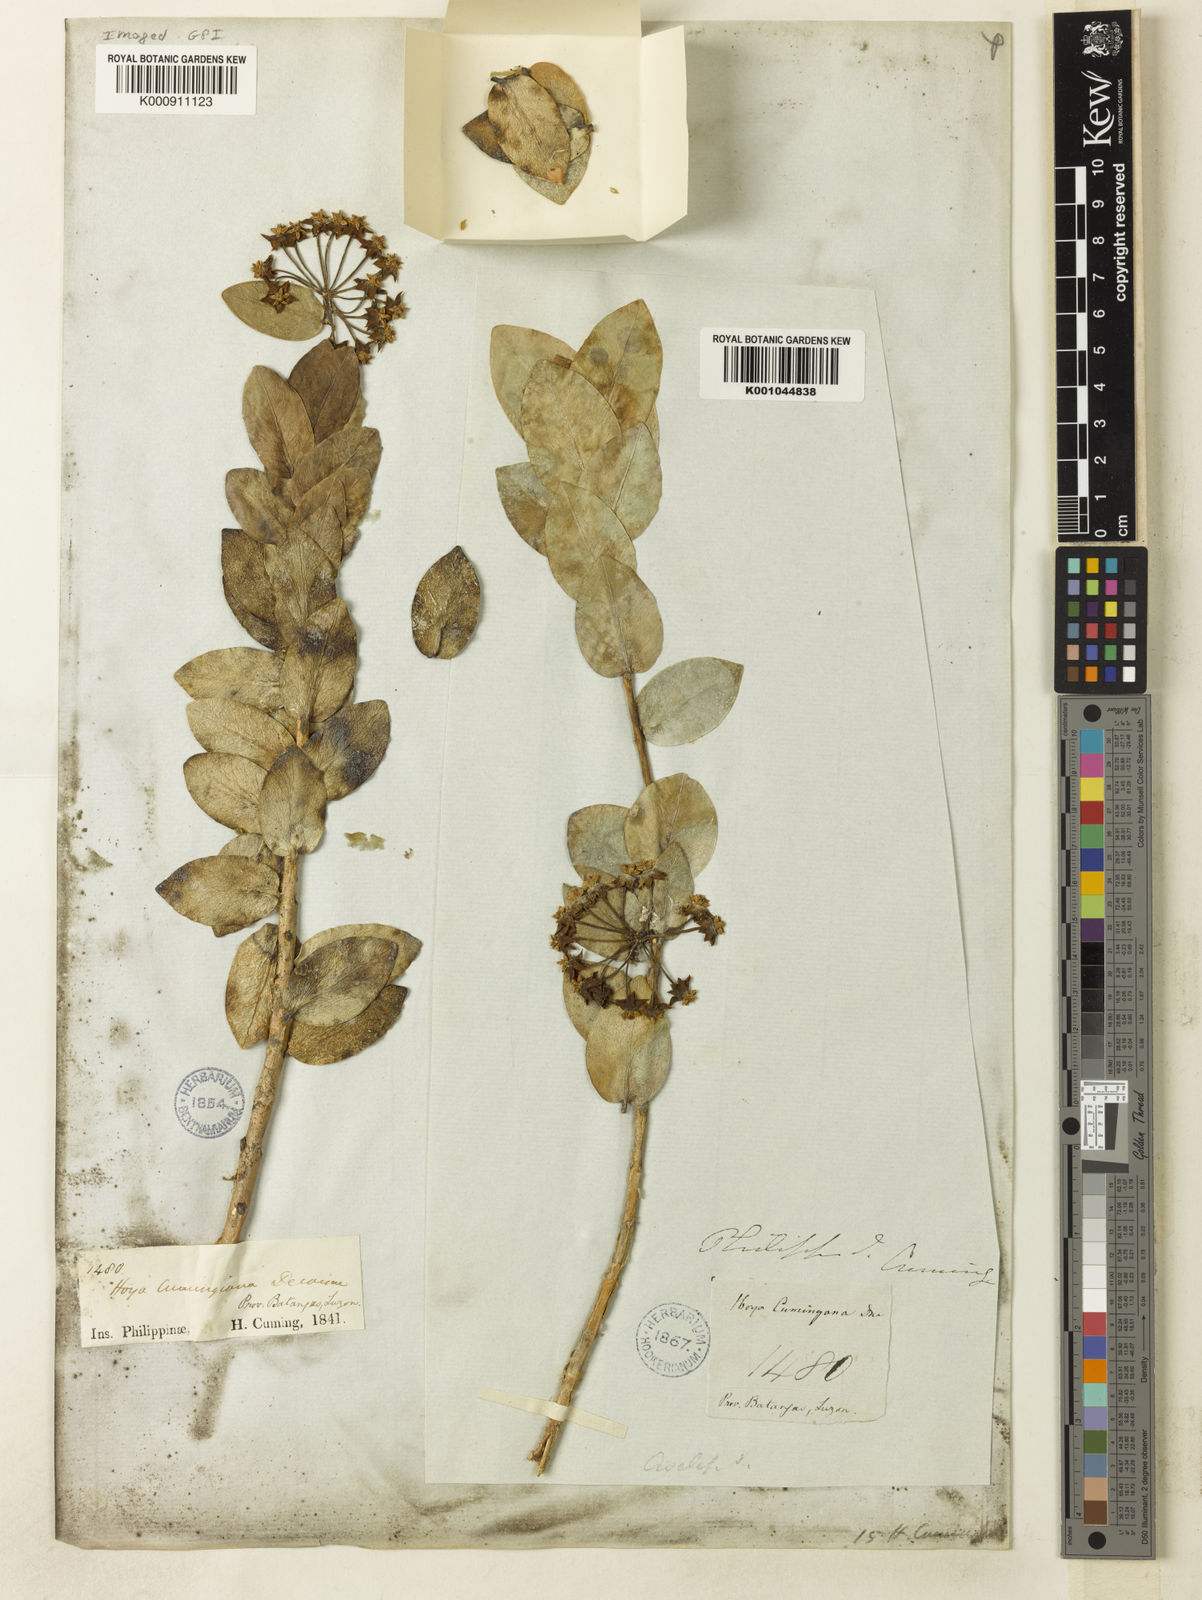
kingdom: Plantae
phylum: Tracheophyta
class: Magnoliopsida
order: Gentianales
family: Apocynaceae
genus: Hoya
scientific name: Hoya cumingiana
